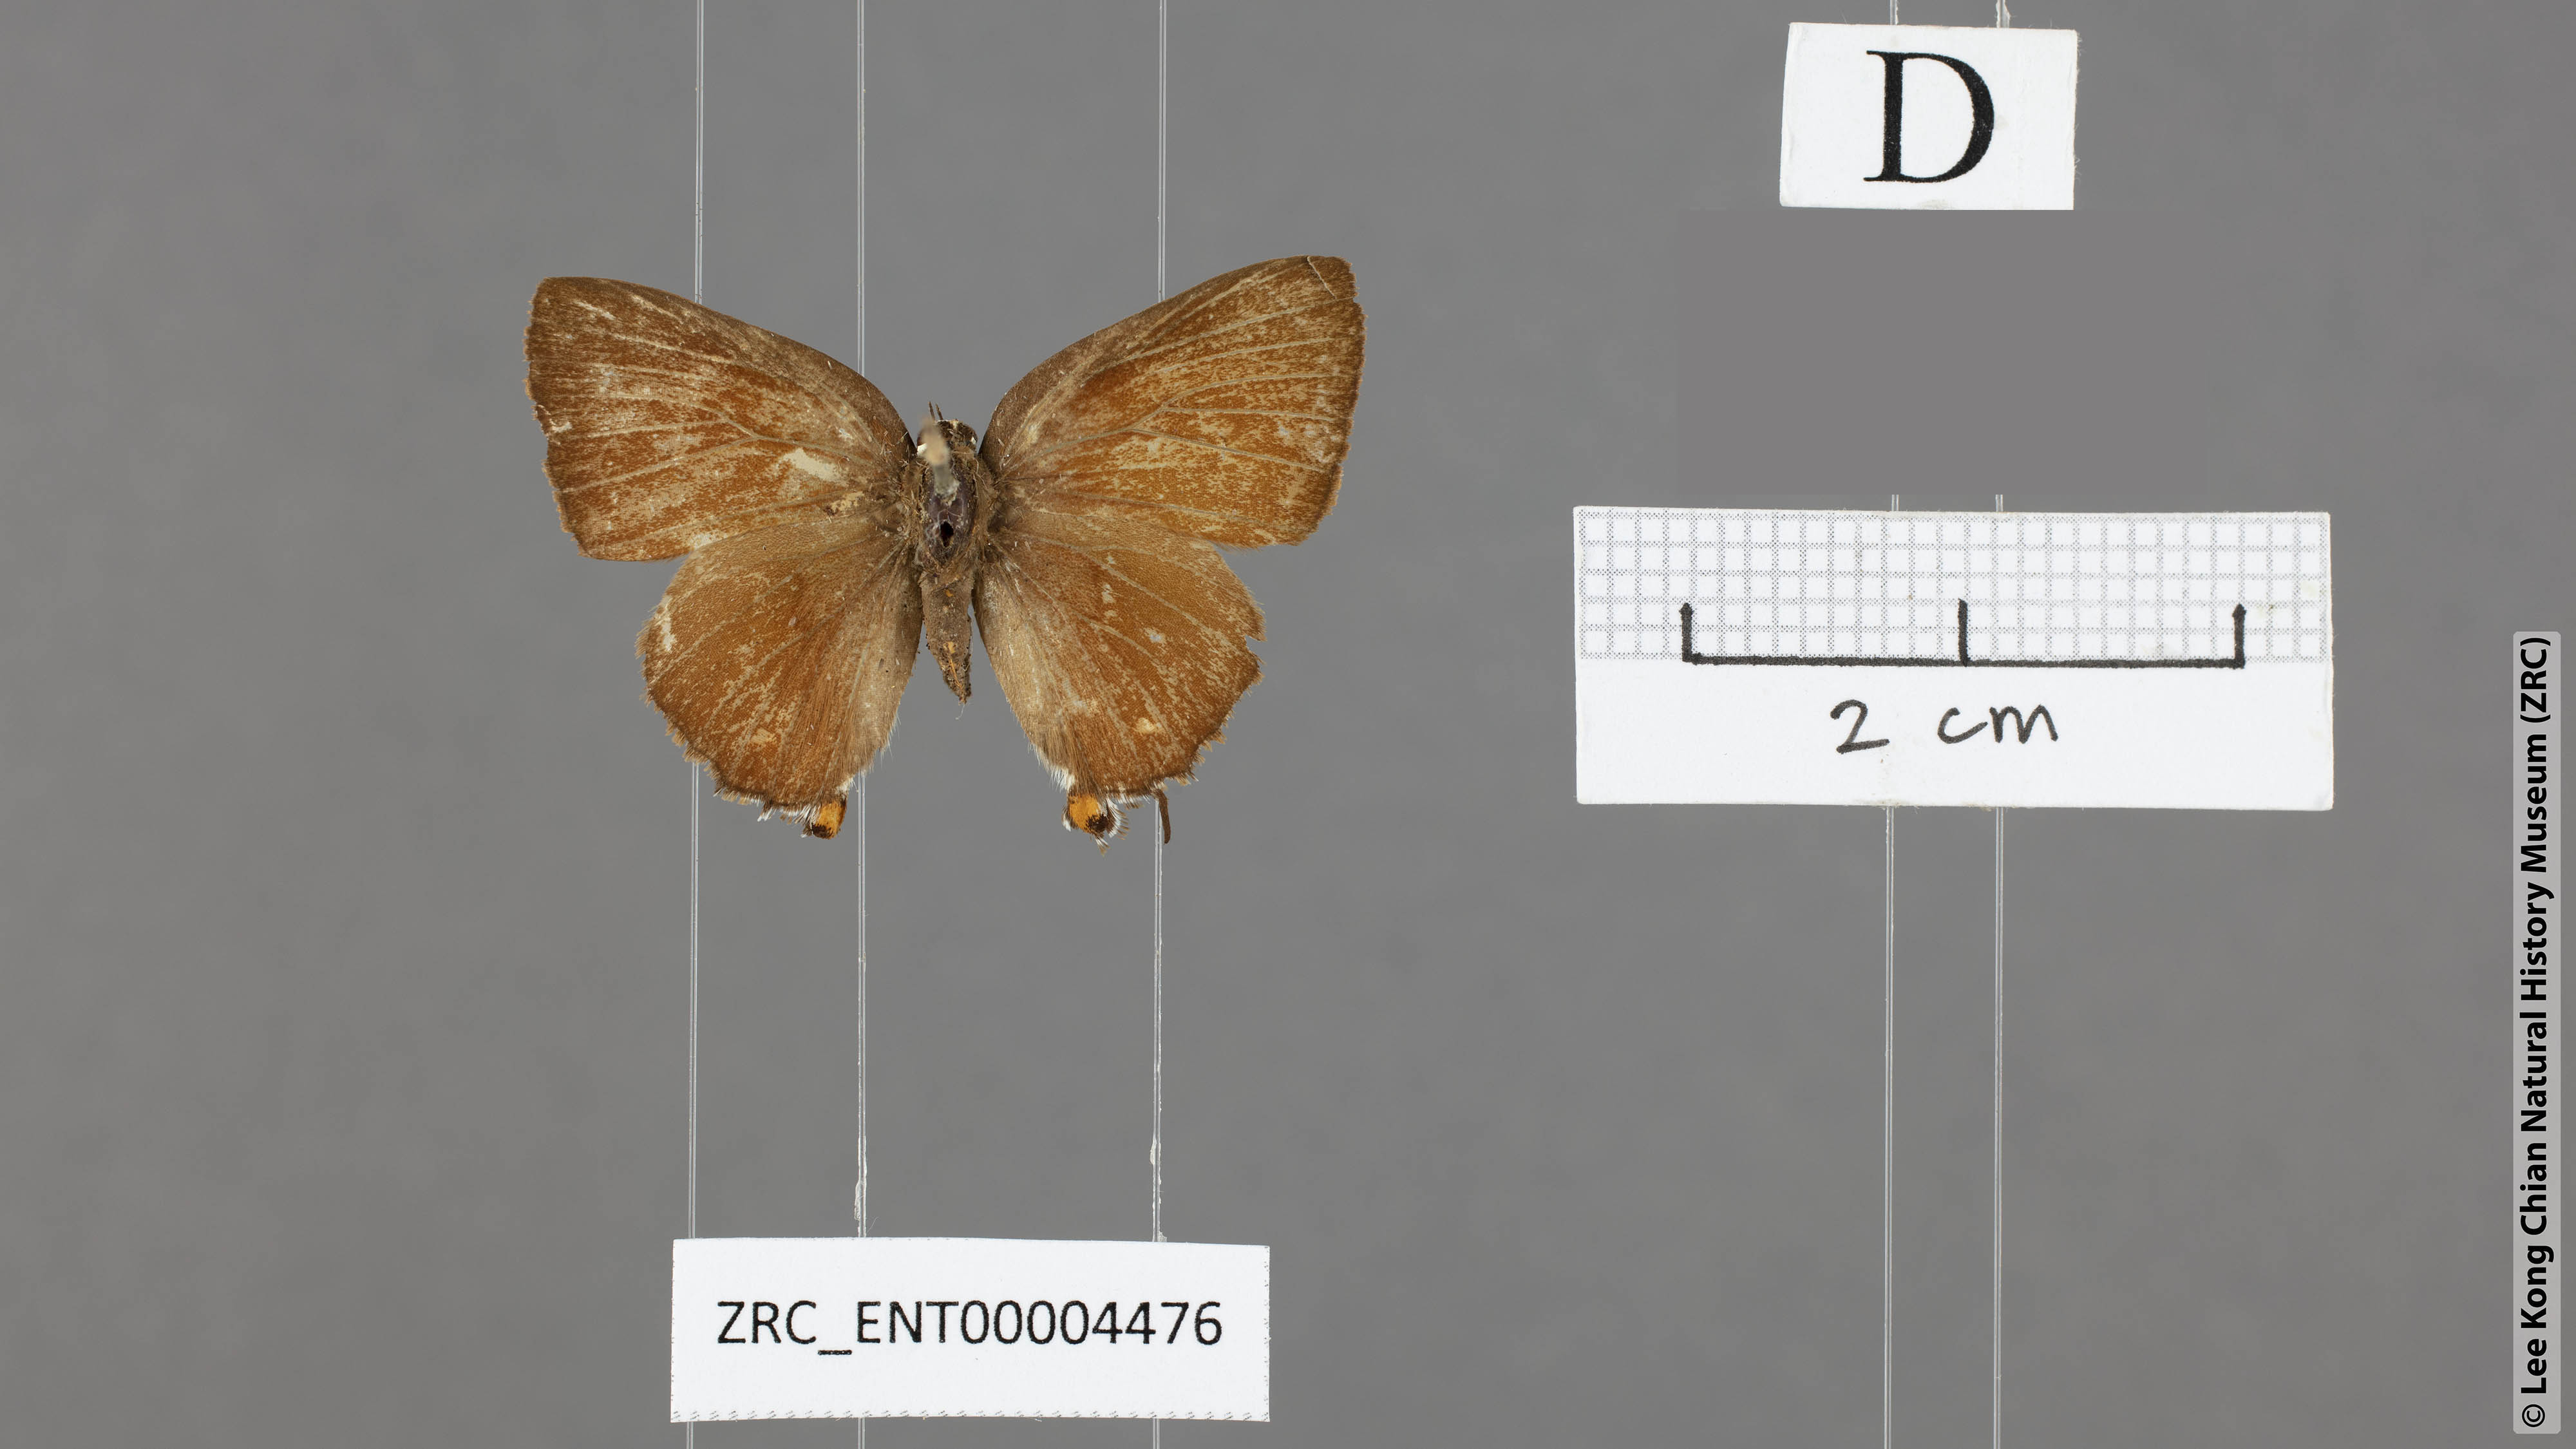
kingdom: Animalia
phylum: Arthropoda
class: Insecta
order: Lepidoptera
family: Lycaenidae
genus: Rapala
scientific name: Rapala damona
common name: Malay red flash
